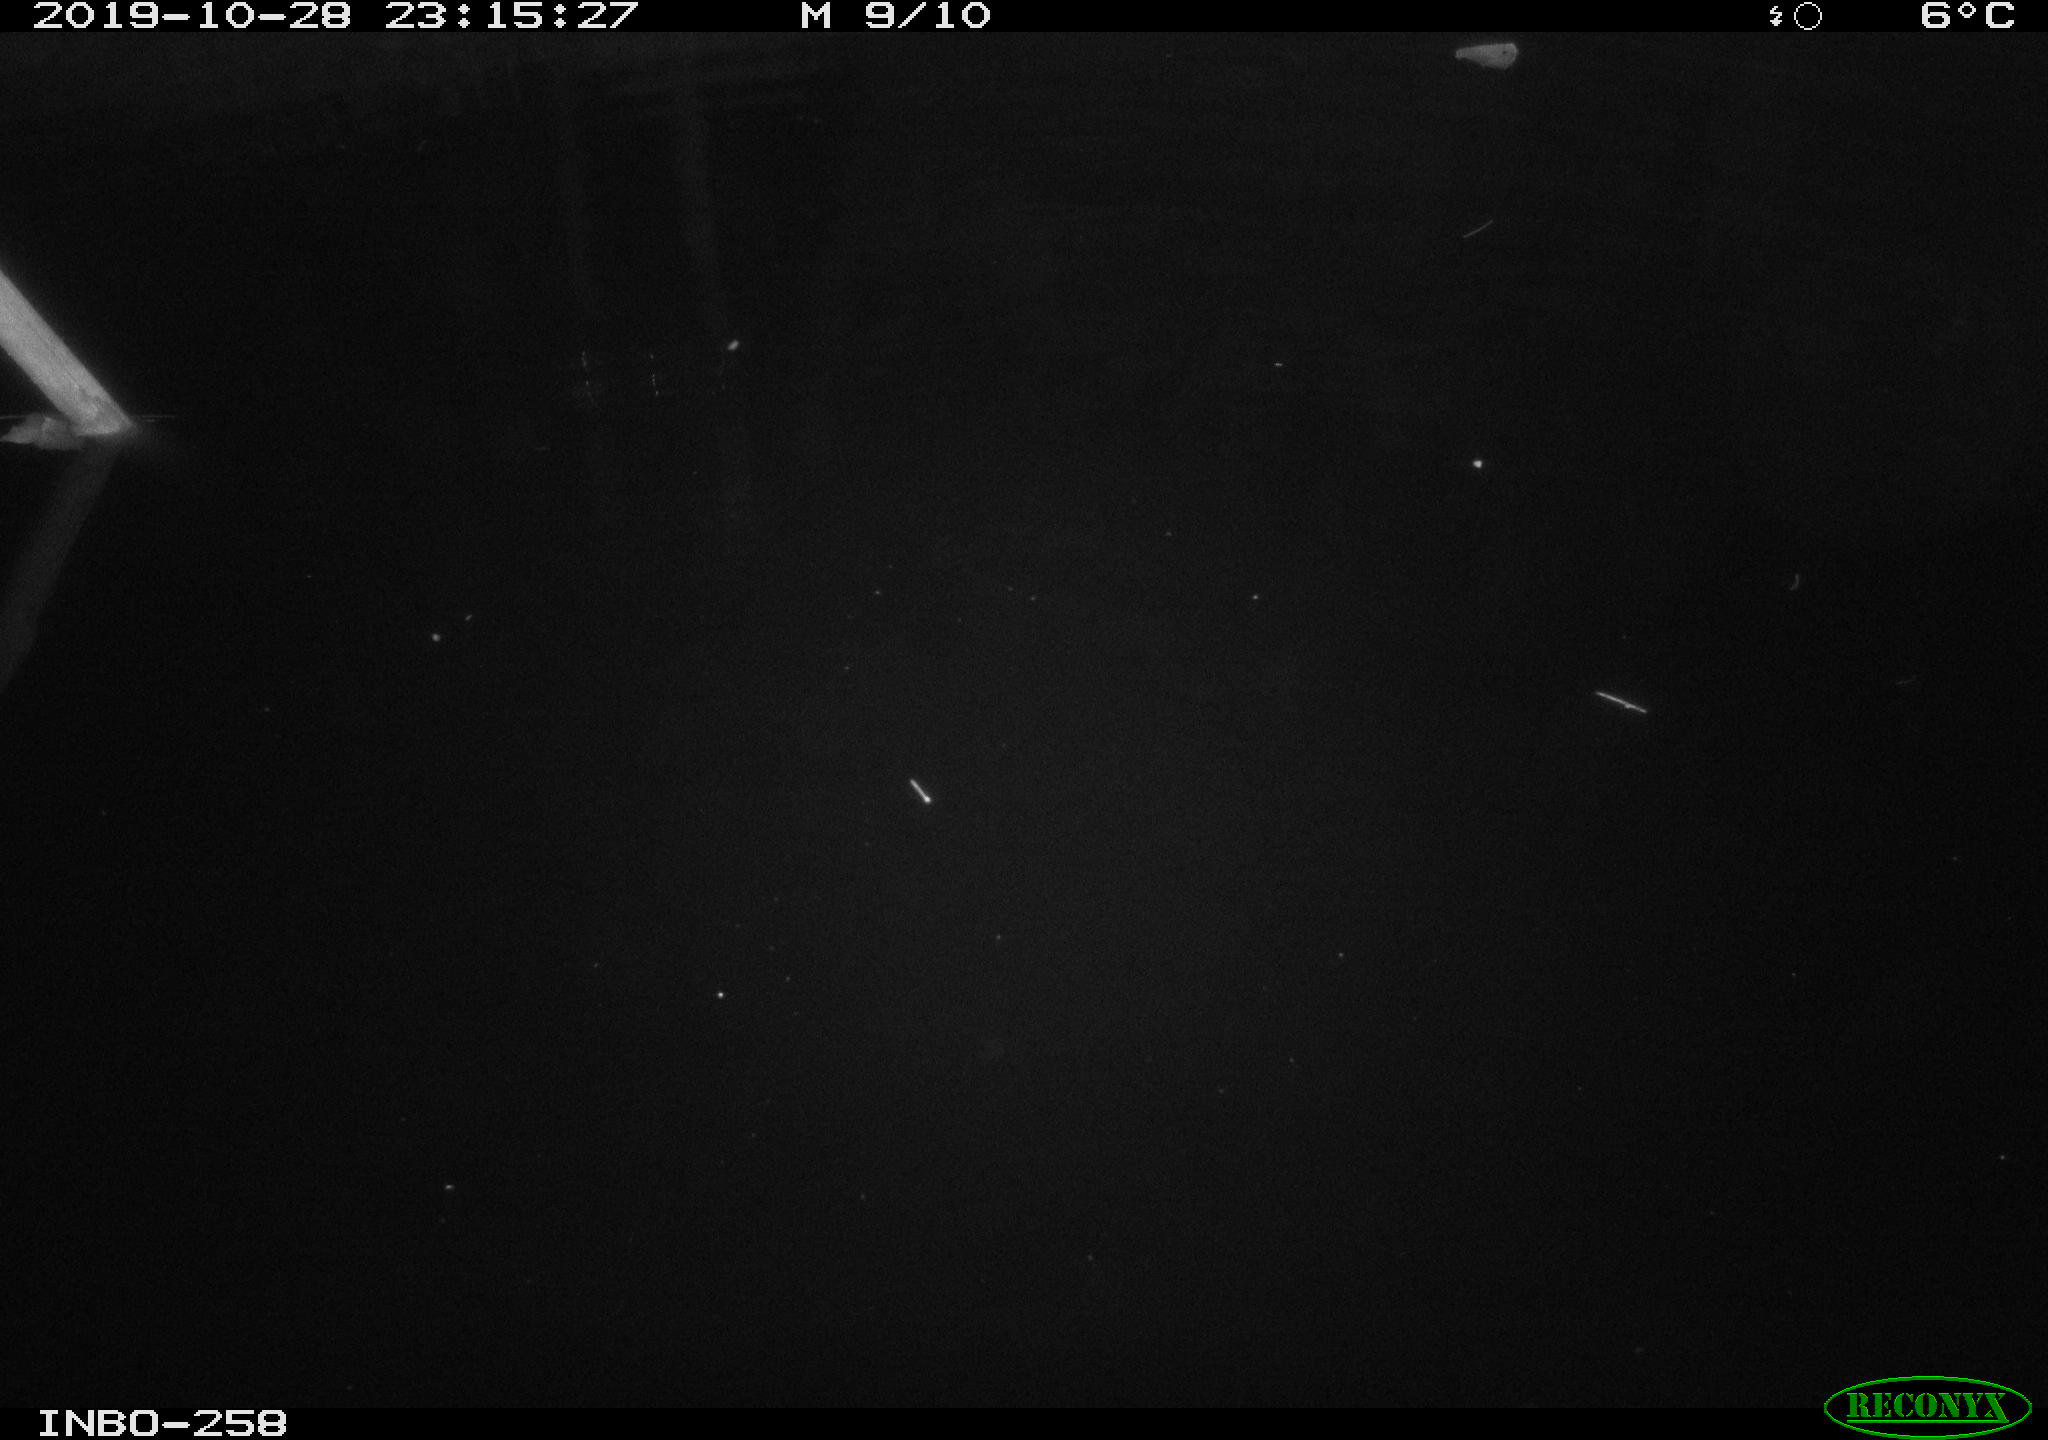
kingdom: Animalia
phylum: Chordata
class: Aves
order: Anseriformes
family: Anatidae
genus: Anas
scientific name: Anas platyrhynchos
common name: Mallard
